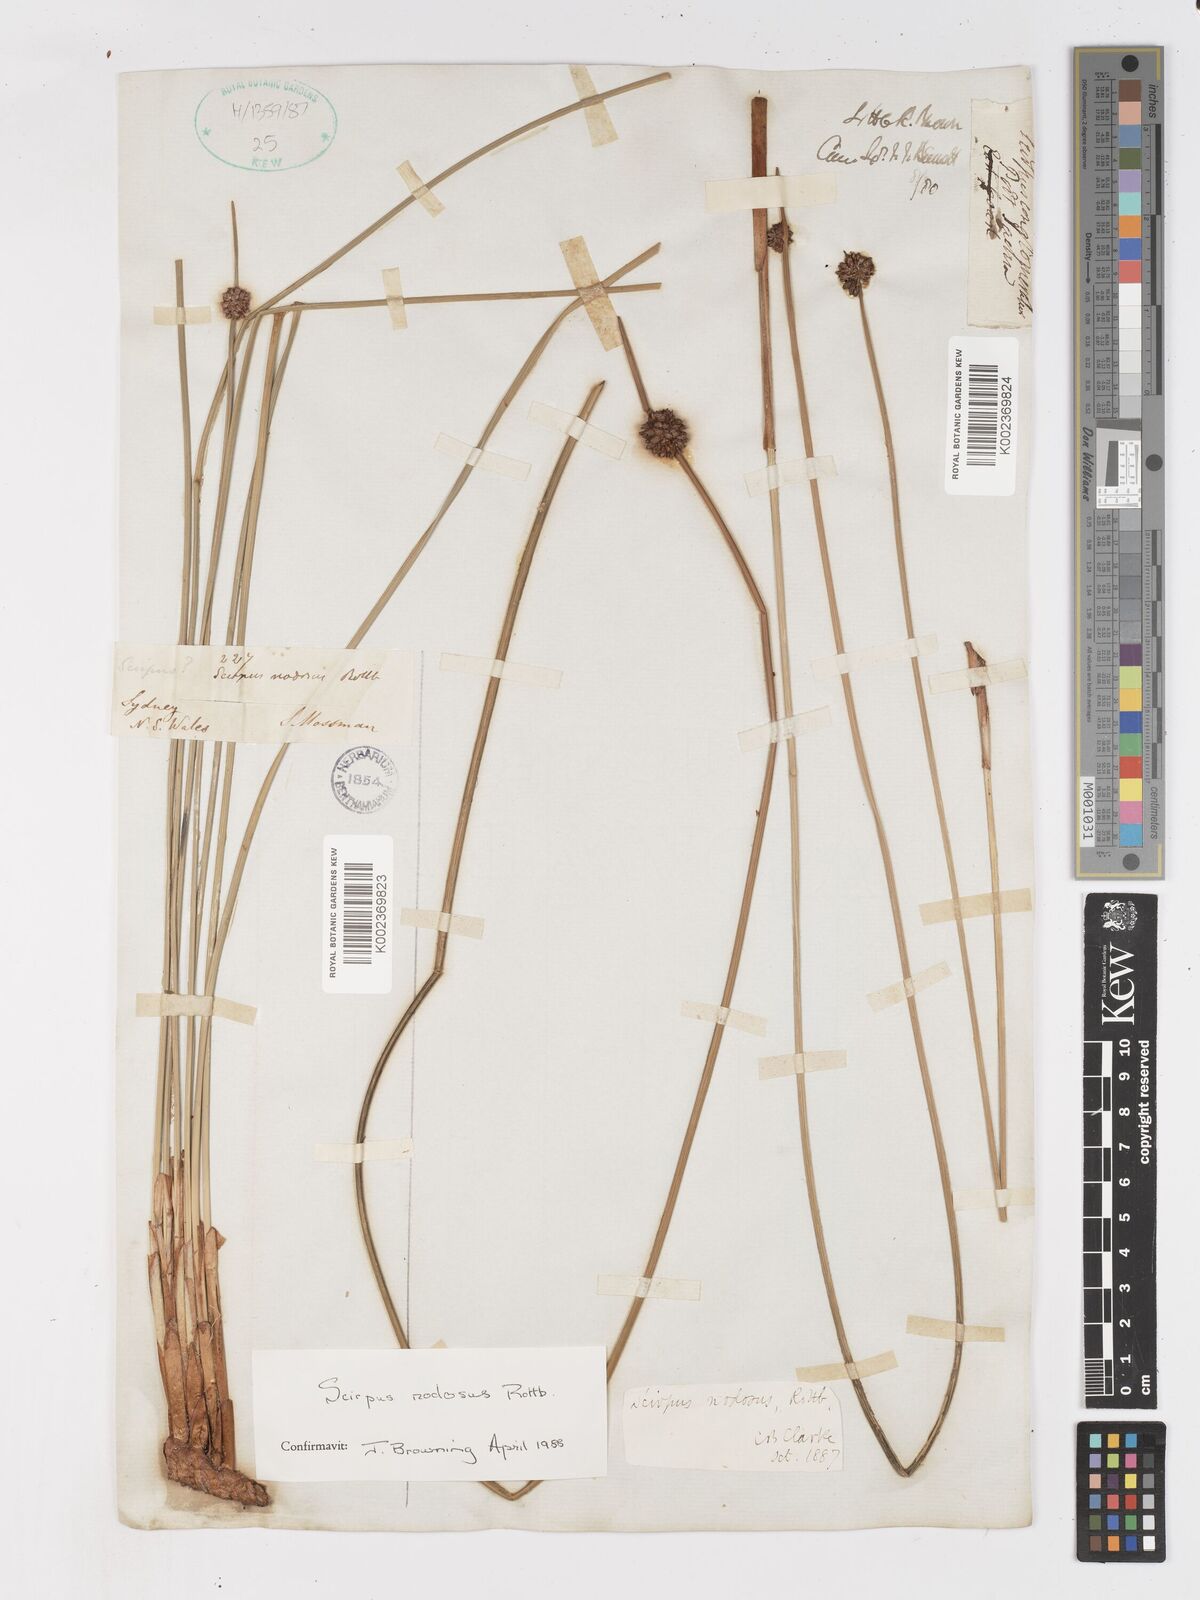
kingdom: Plantae
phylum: Tracheophyta
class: Liliopsida
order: Poales
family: Cyperaceae
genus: Ficinia
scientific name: Ficinia nodosa
